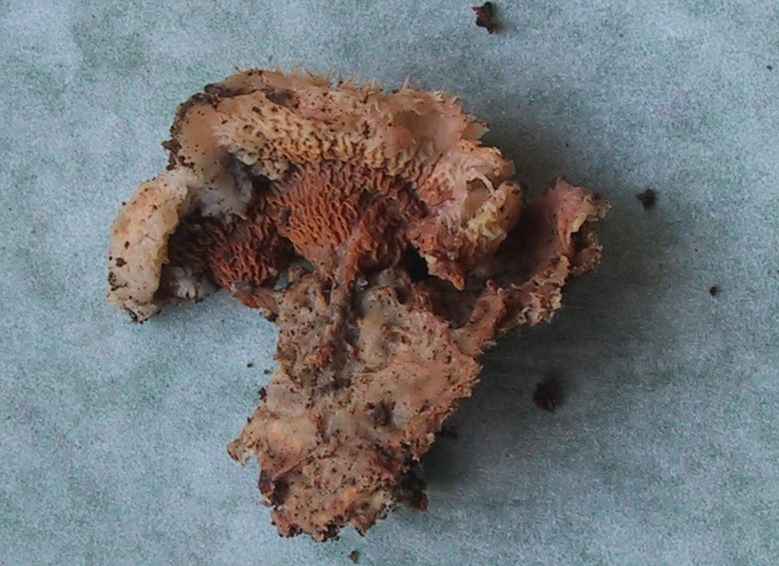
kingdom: Fungi
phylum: Basidiomycota
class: Agaricomycetes
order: Polyporales
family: Meruliaceae
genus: Phlebia
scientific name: Phlebia tremellosa
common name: bævrende åresvamp
